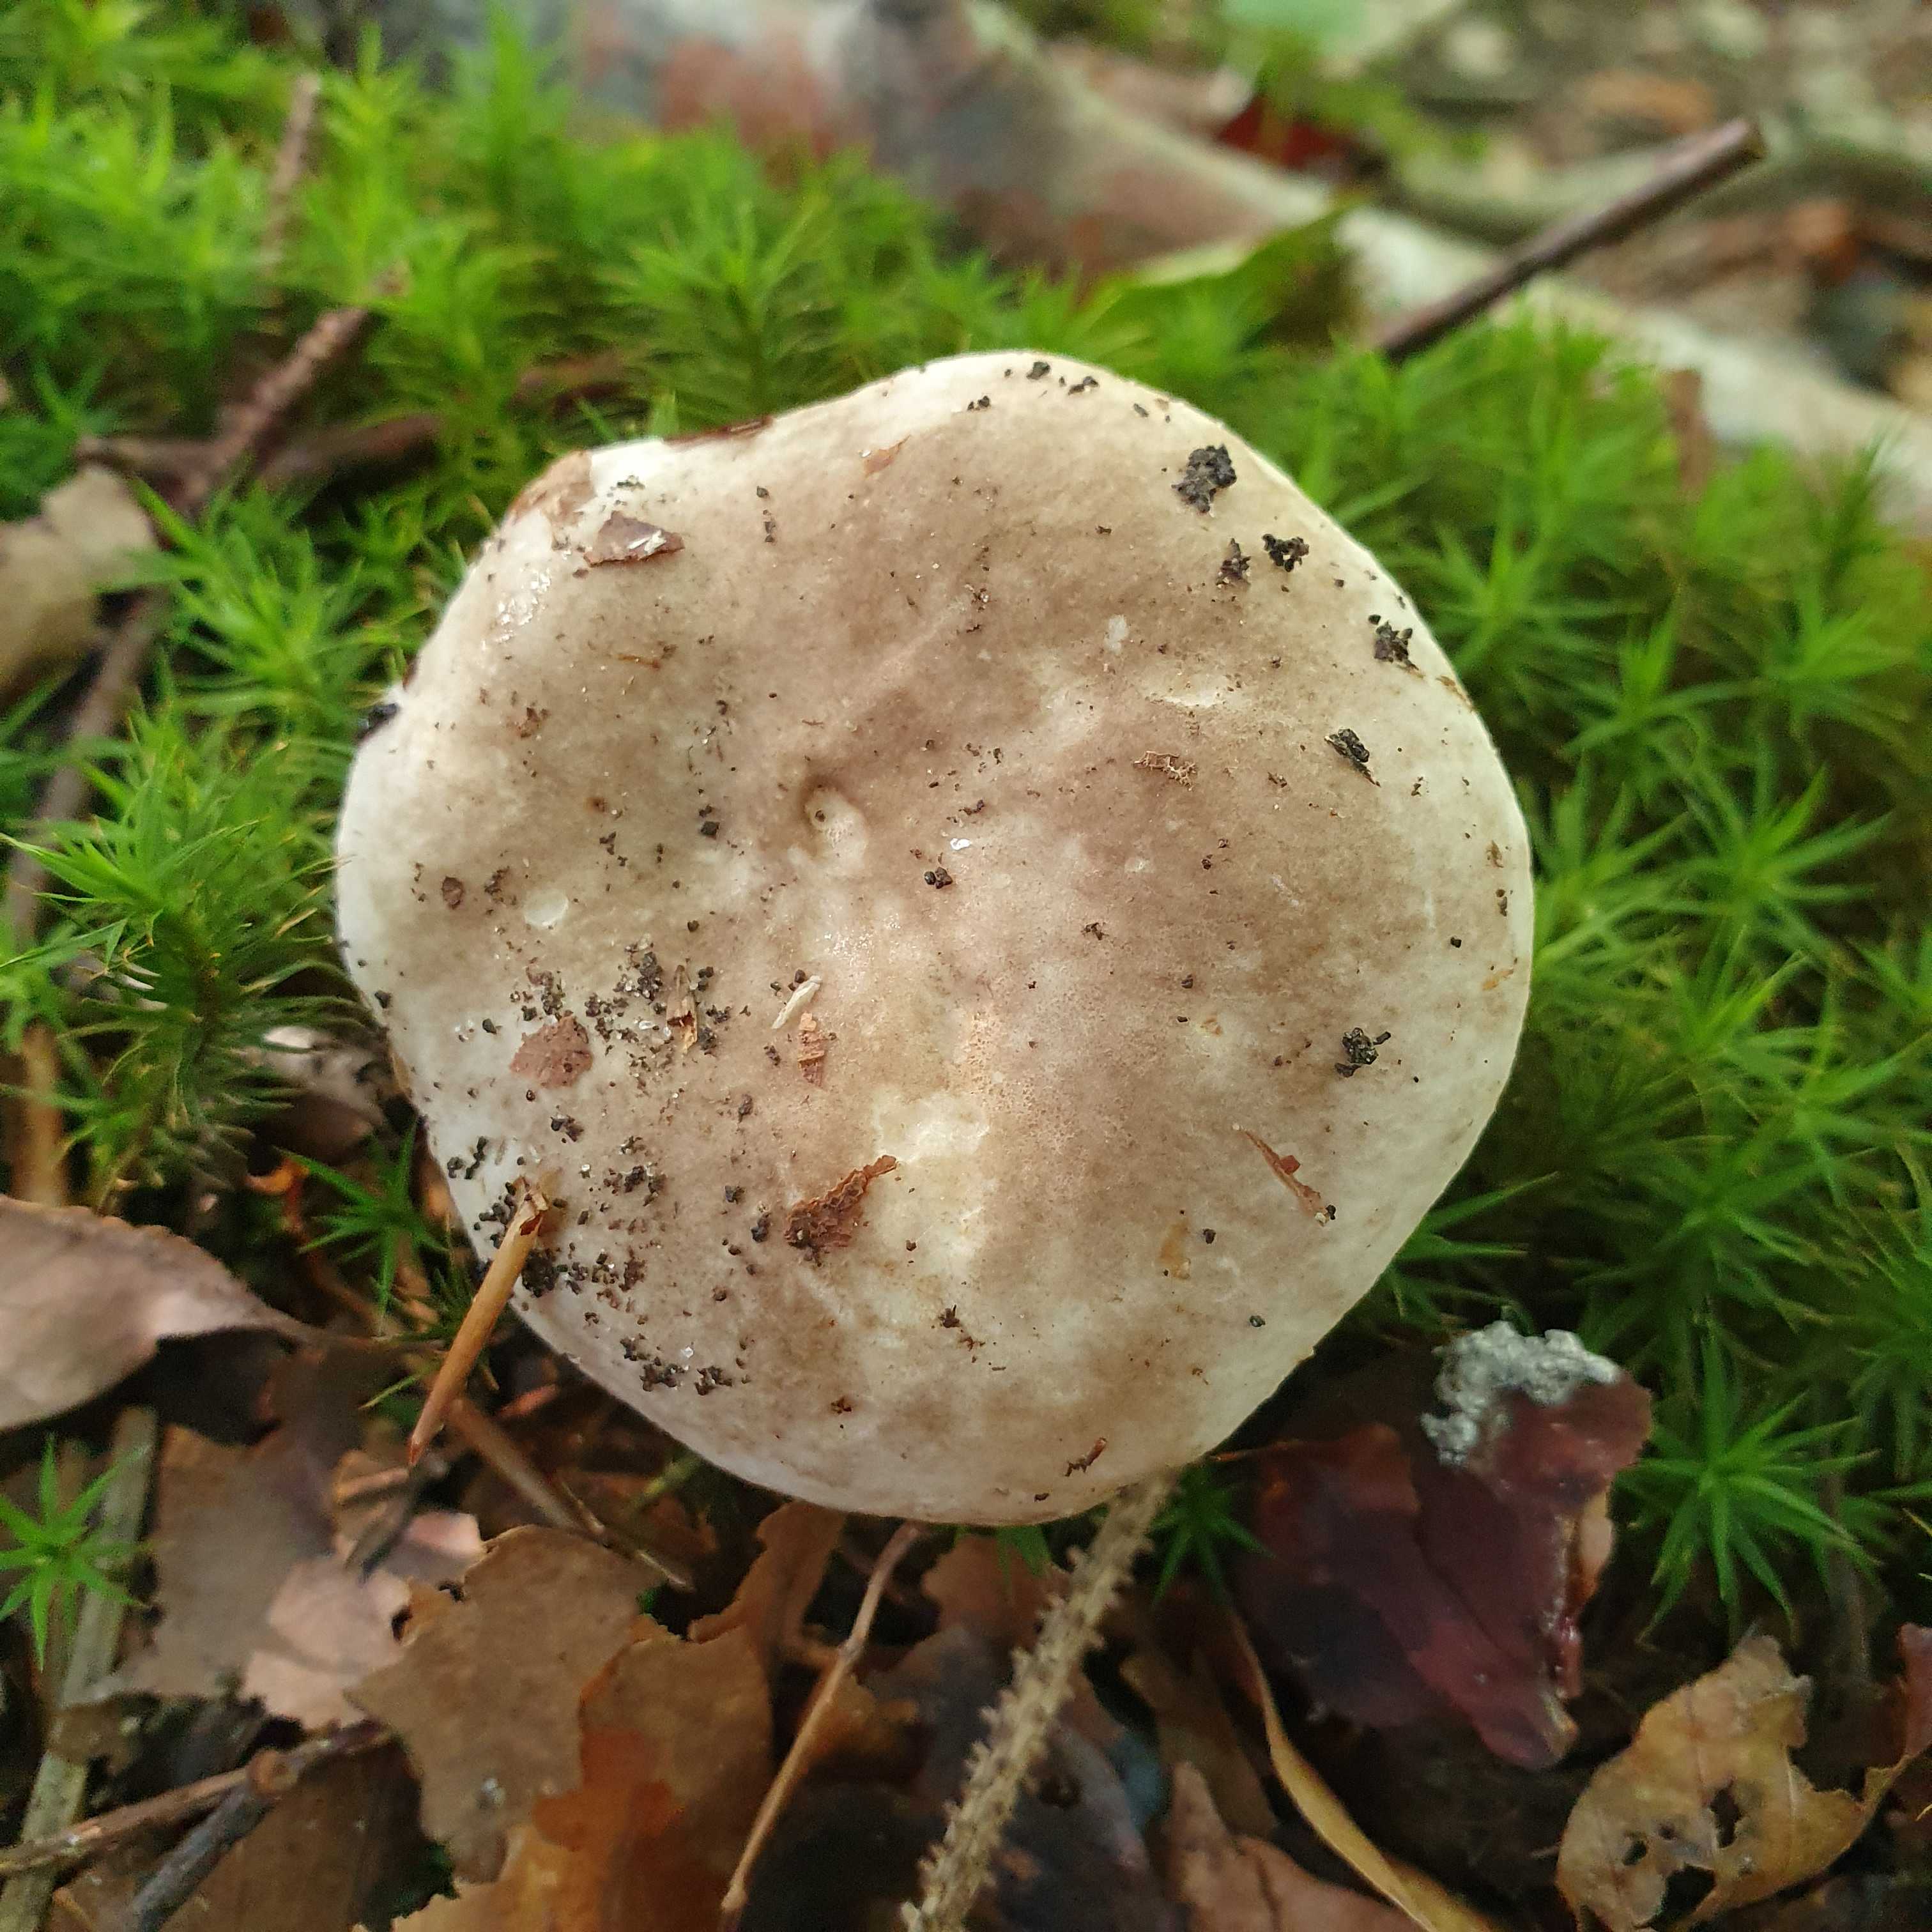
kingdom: Fungi
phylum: Basidiomycota
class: Agaricomycetes
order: Russulales
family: Russulaceae
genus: Russula
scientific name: Russula adusta
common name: sværtende skørhat
